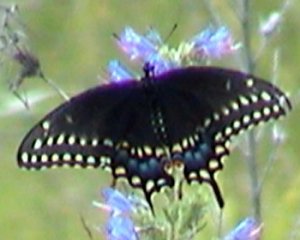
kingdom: Animalia
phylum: Arthropoda
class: Insecta
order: Lepidoptera
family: Papilionidae
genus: Papilio
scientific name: Papilio polyxenes
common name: Black Swallowtail
